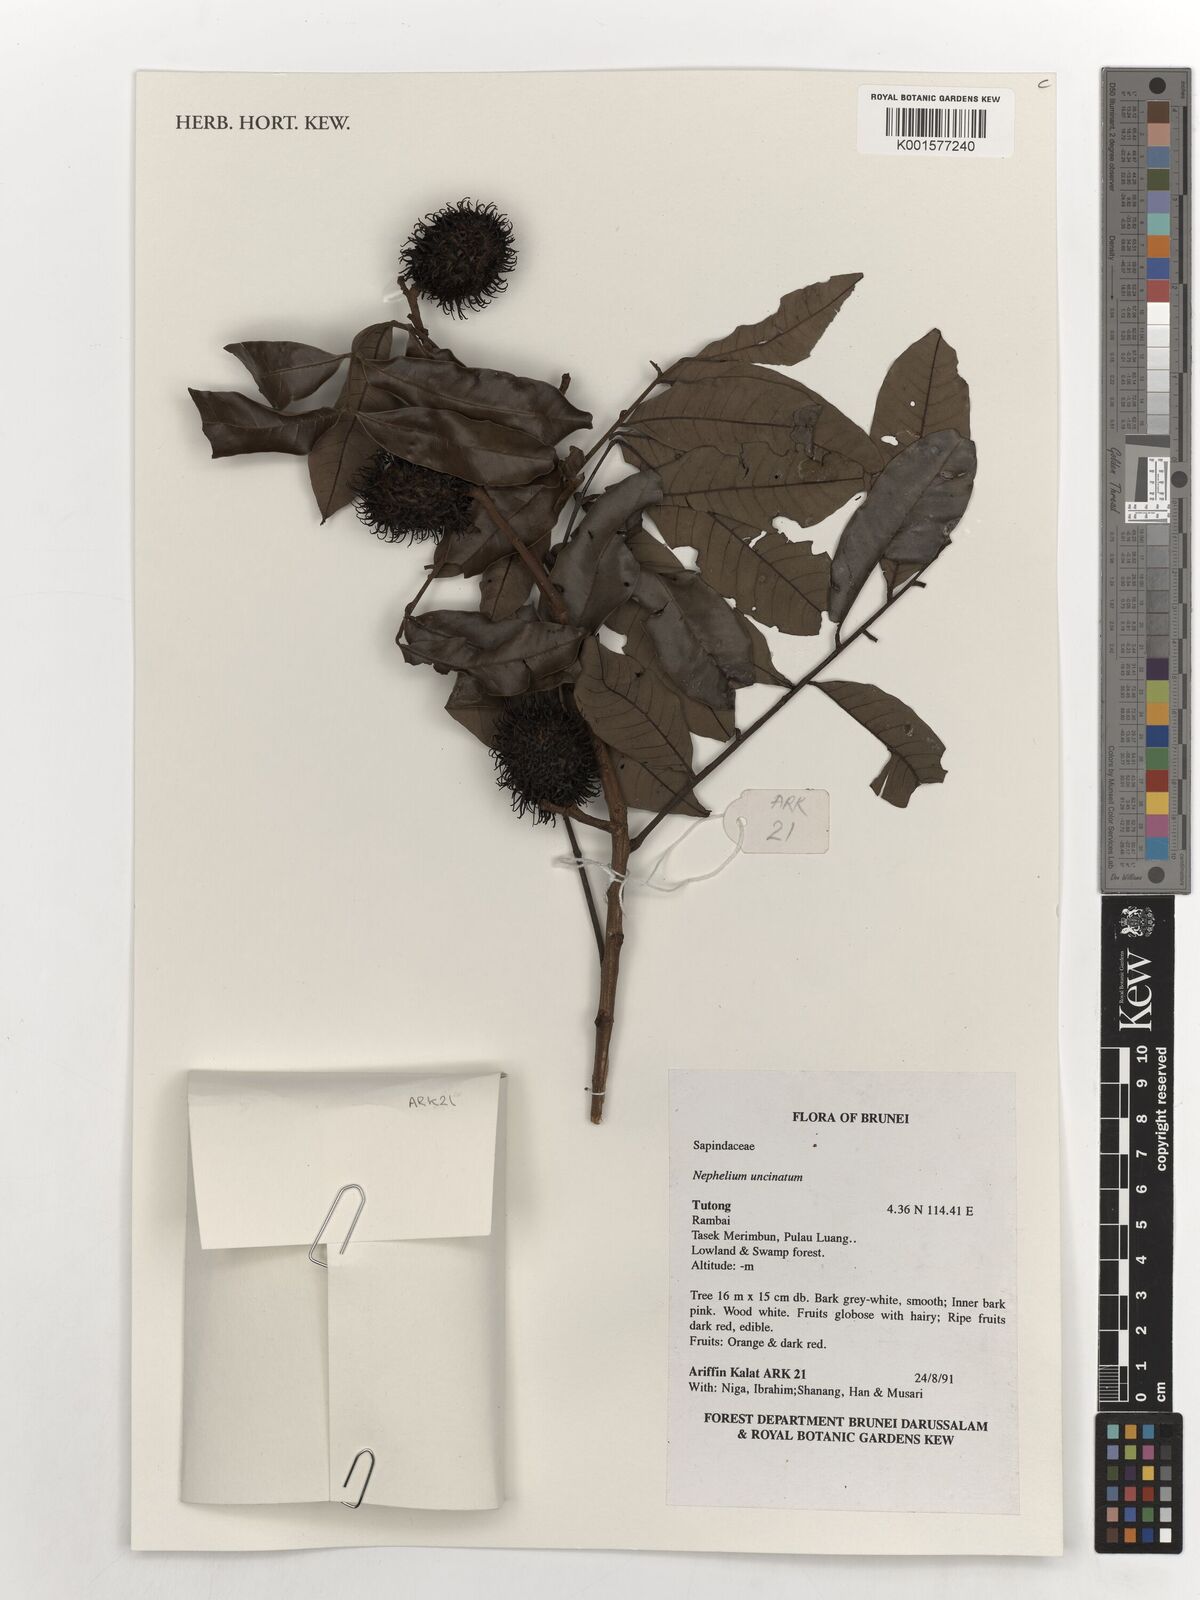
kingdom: Plantae
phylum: Tracheophyta
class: Magnoliopsida
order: Sapindales
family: Sapindaceae
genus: Nephelium
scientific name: Nephelium uncinatum
